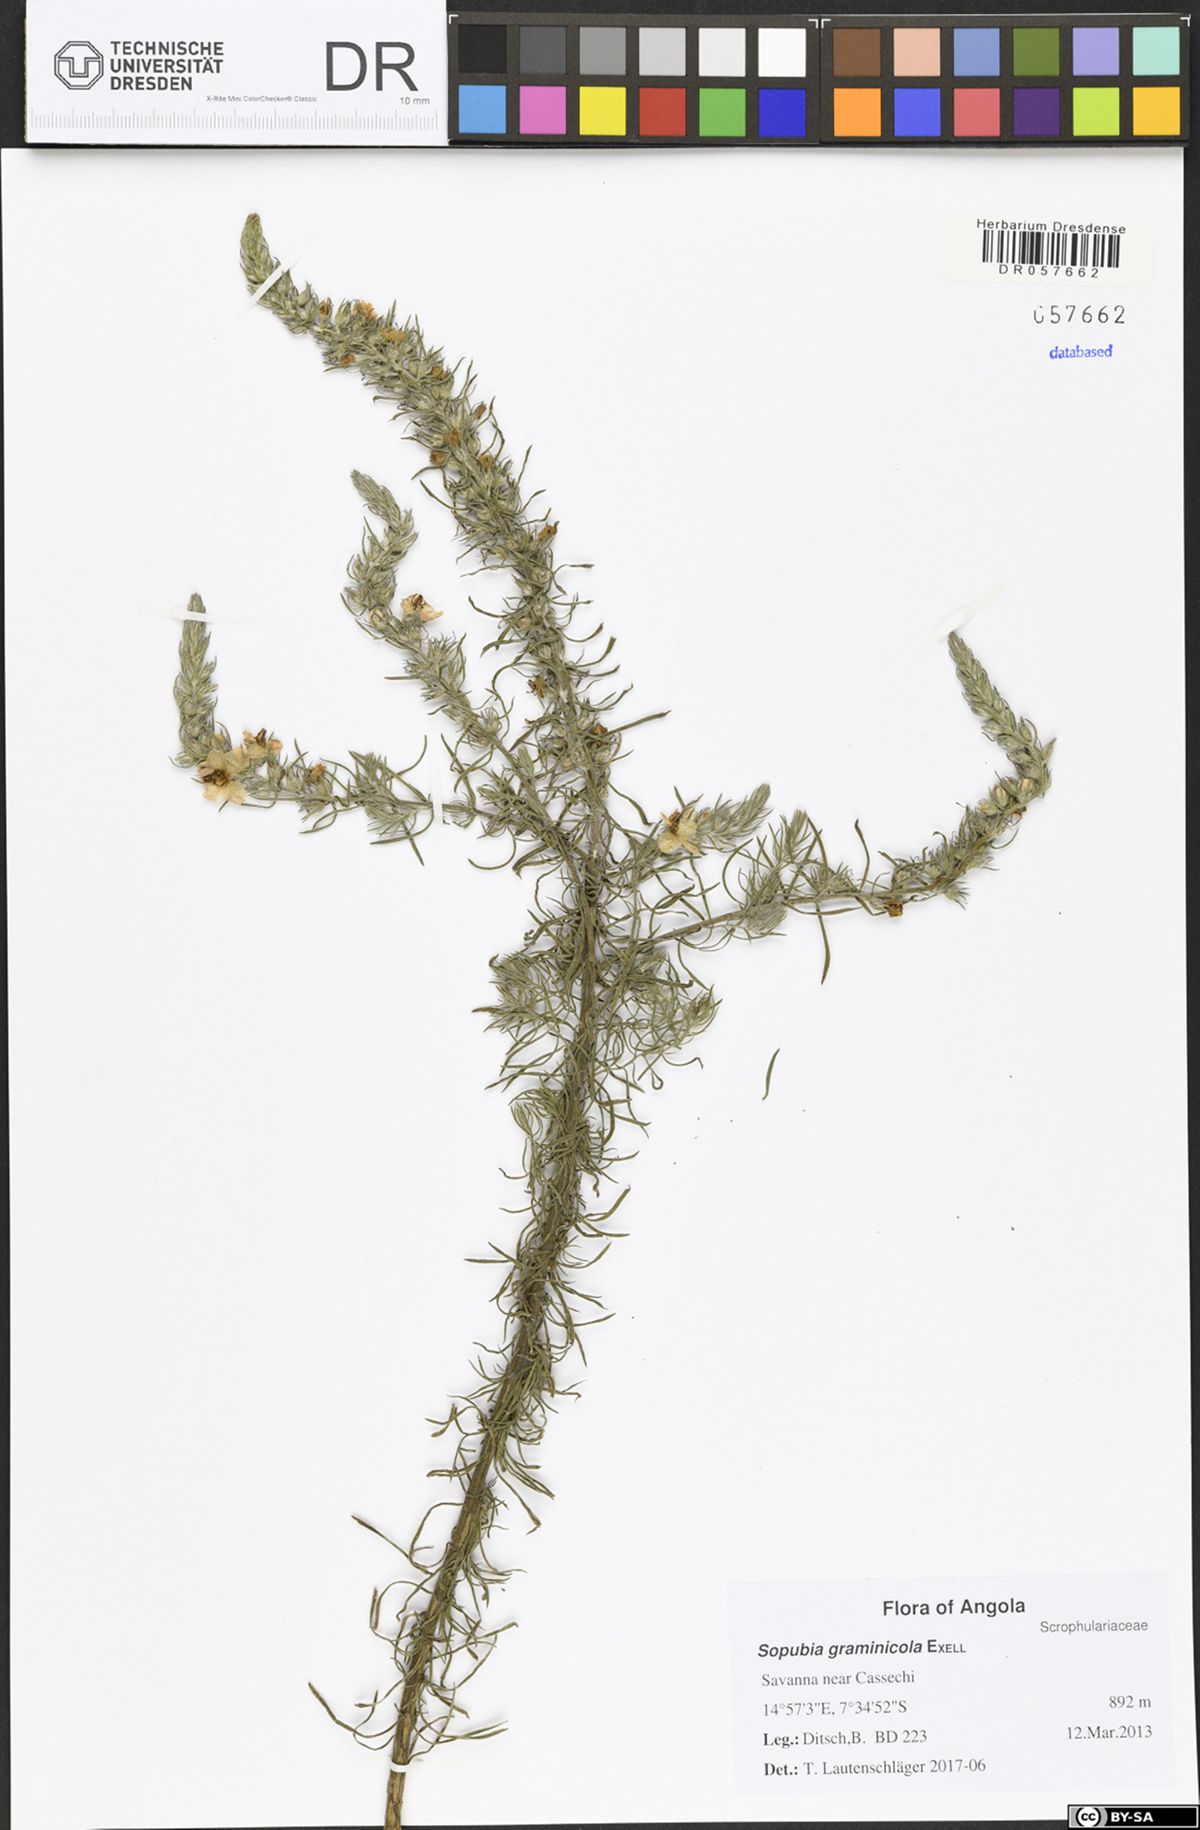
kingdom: Plantae
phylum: Tracheophyta
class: Magnoliopsida
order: Lamiales
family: Orobanchaceae
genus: Sopubia
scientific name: Sopubia graminicola
